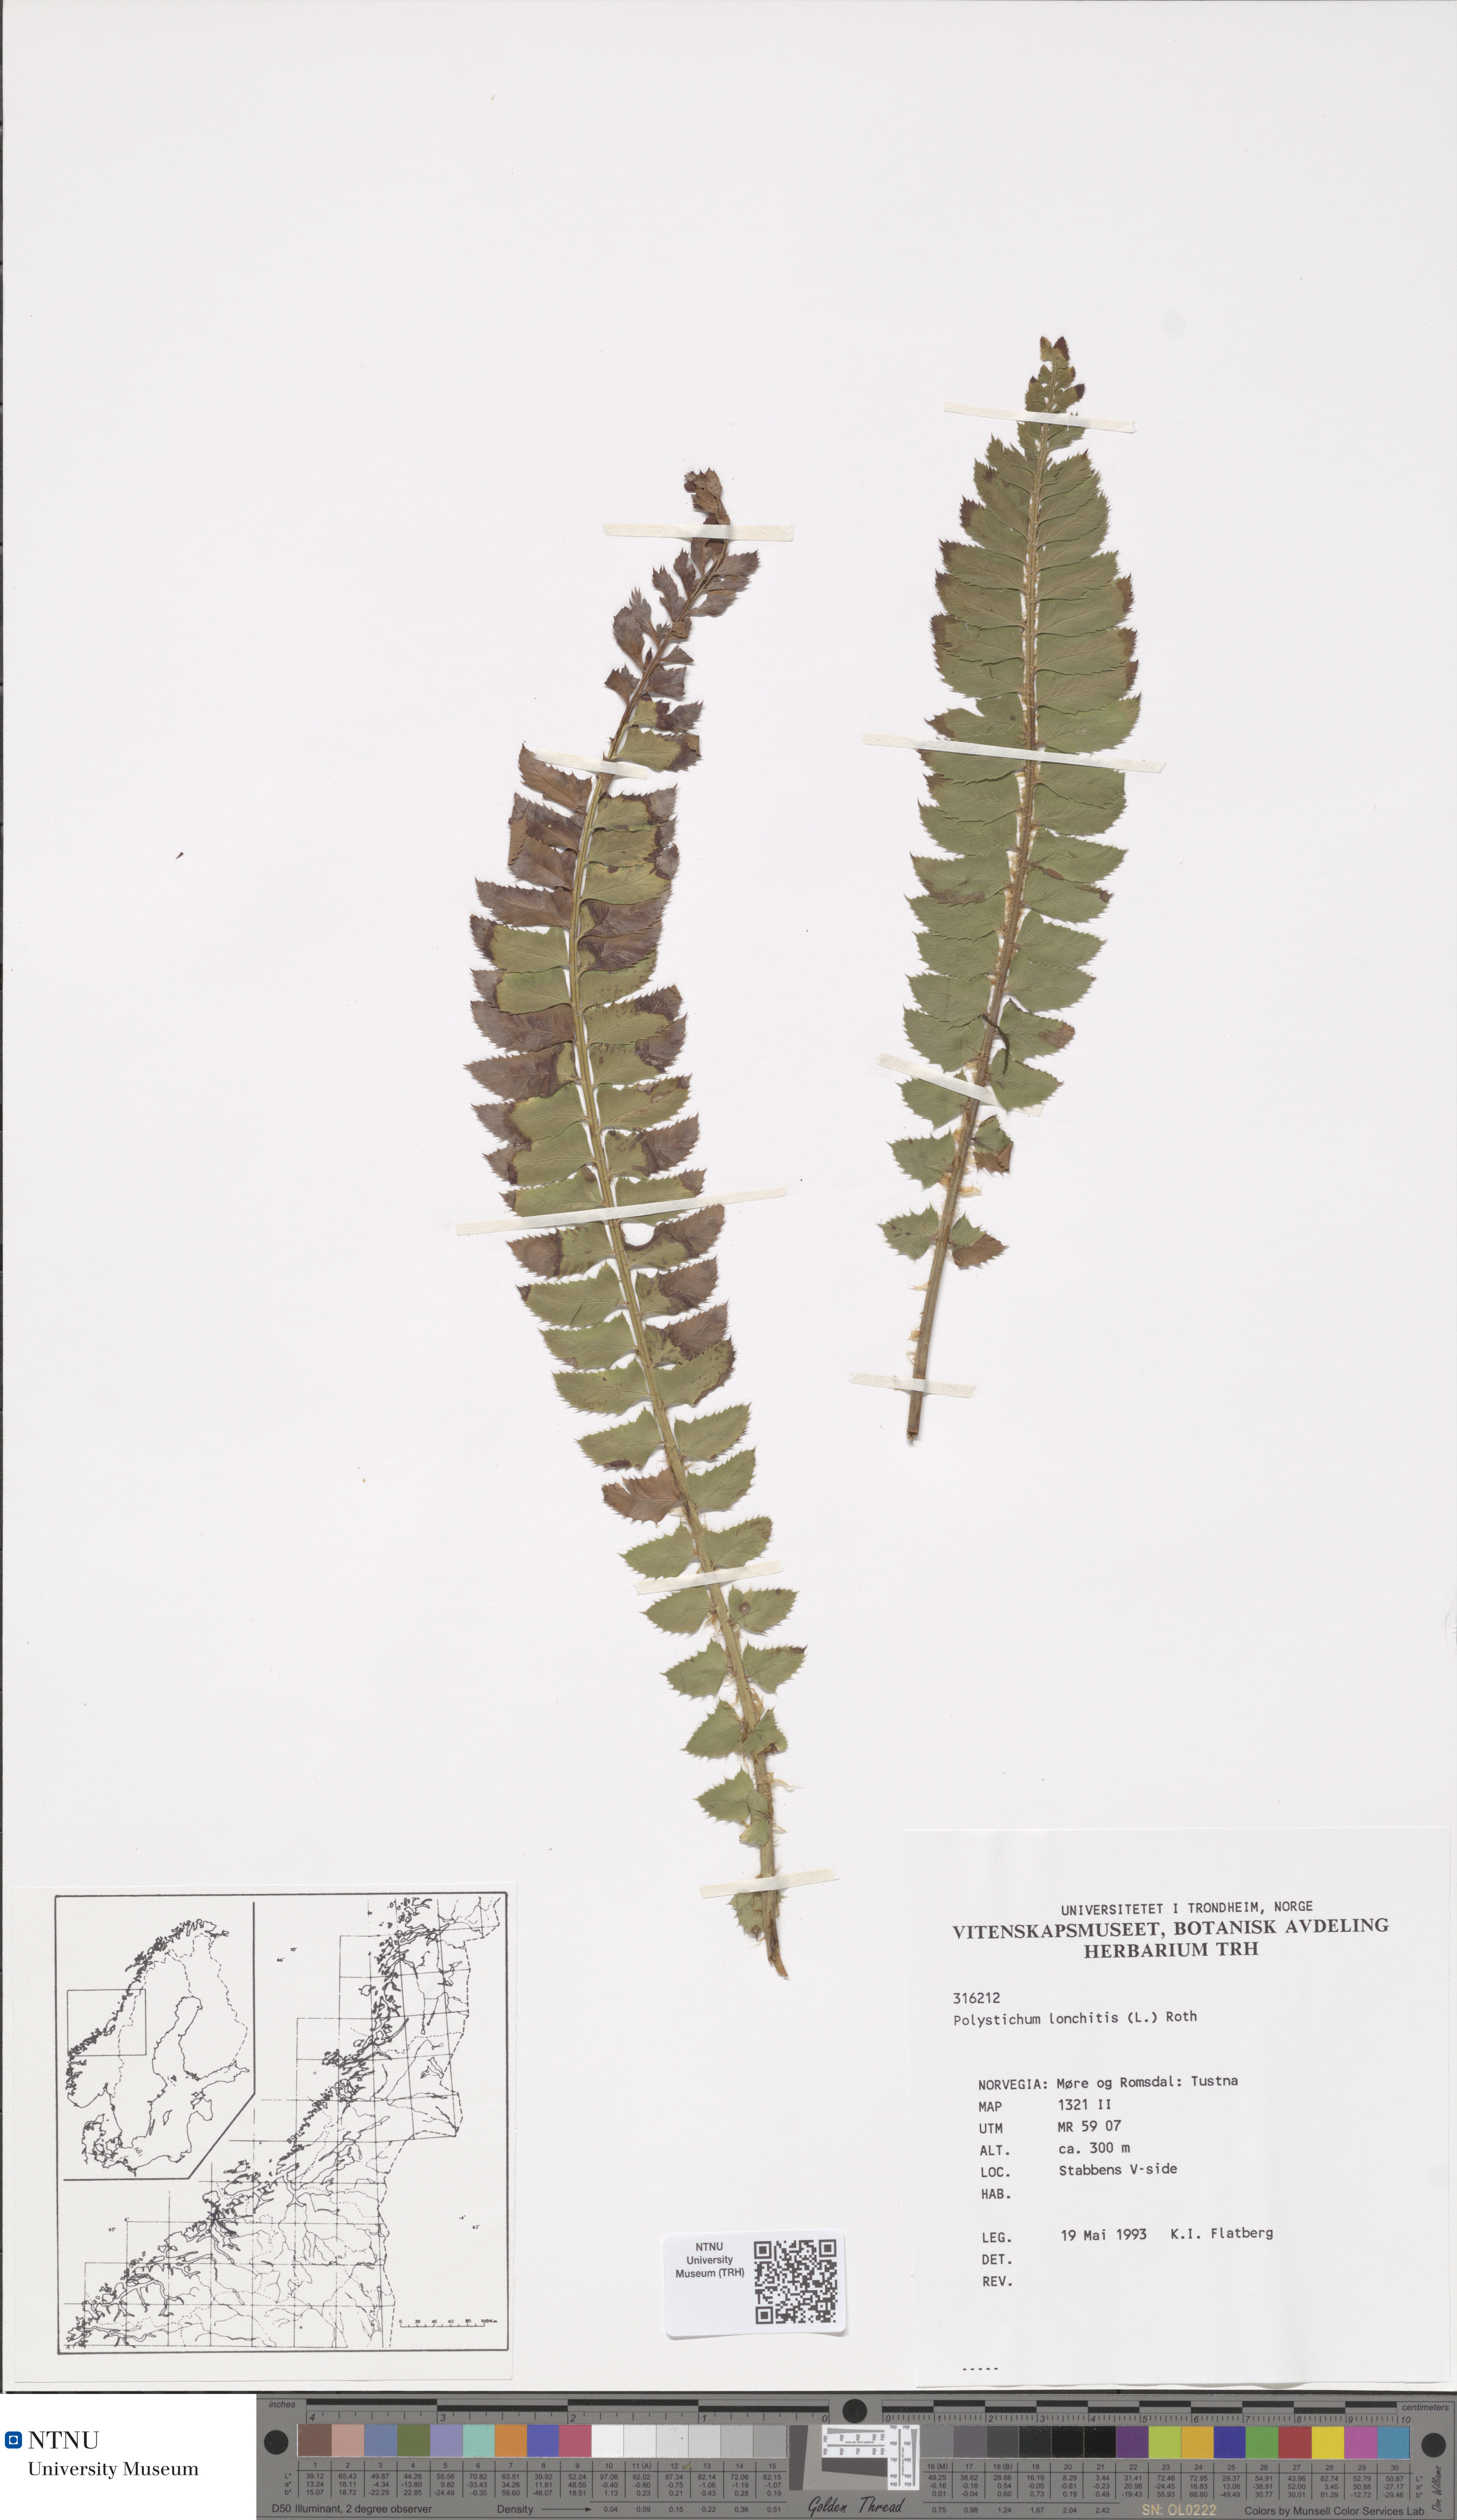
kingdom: Plantae
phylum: Tracheophyta
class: Polypodiopsida
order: Polypodiales
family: Dryopteridaceae
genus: Polystichum
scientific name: Polystichum lonchitis
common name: Holly fern
